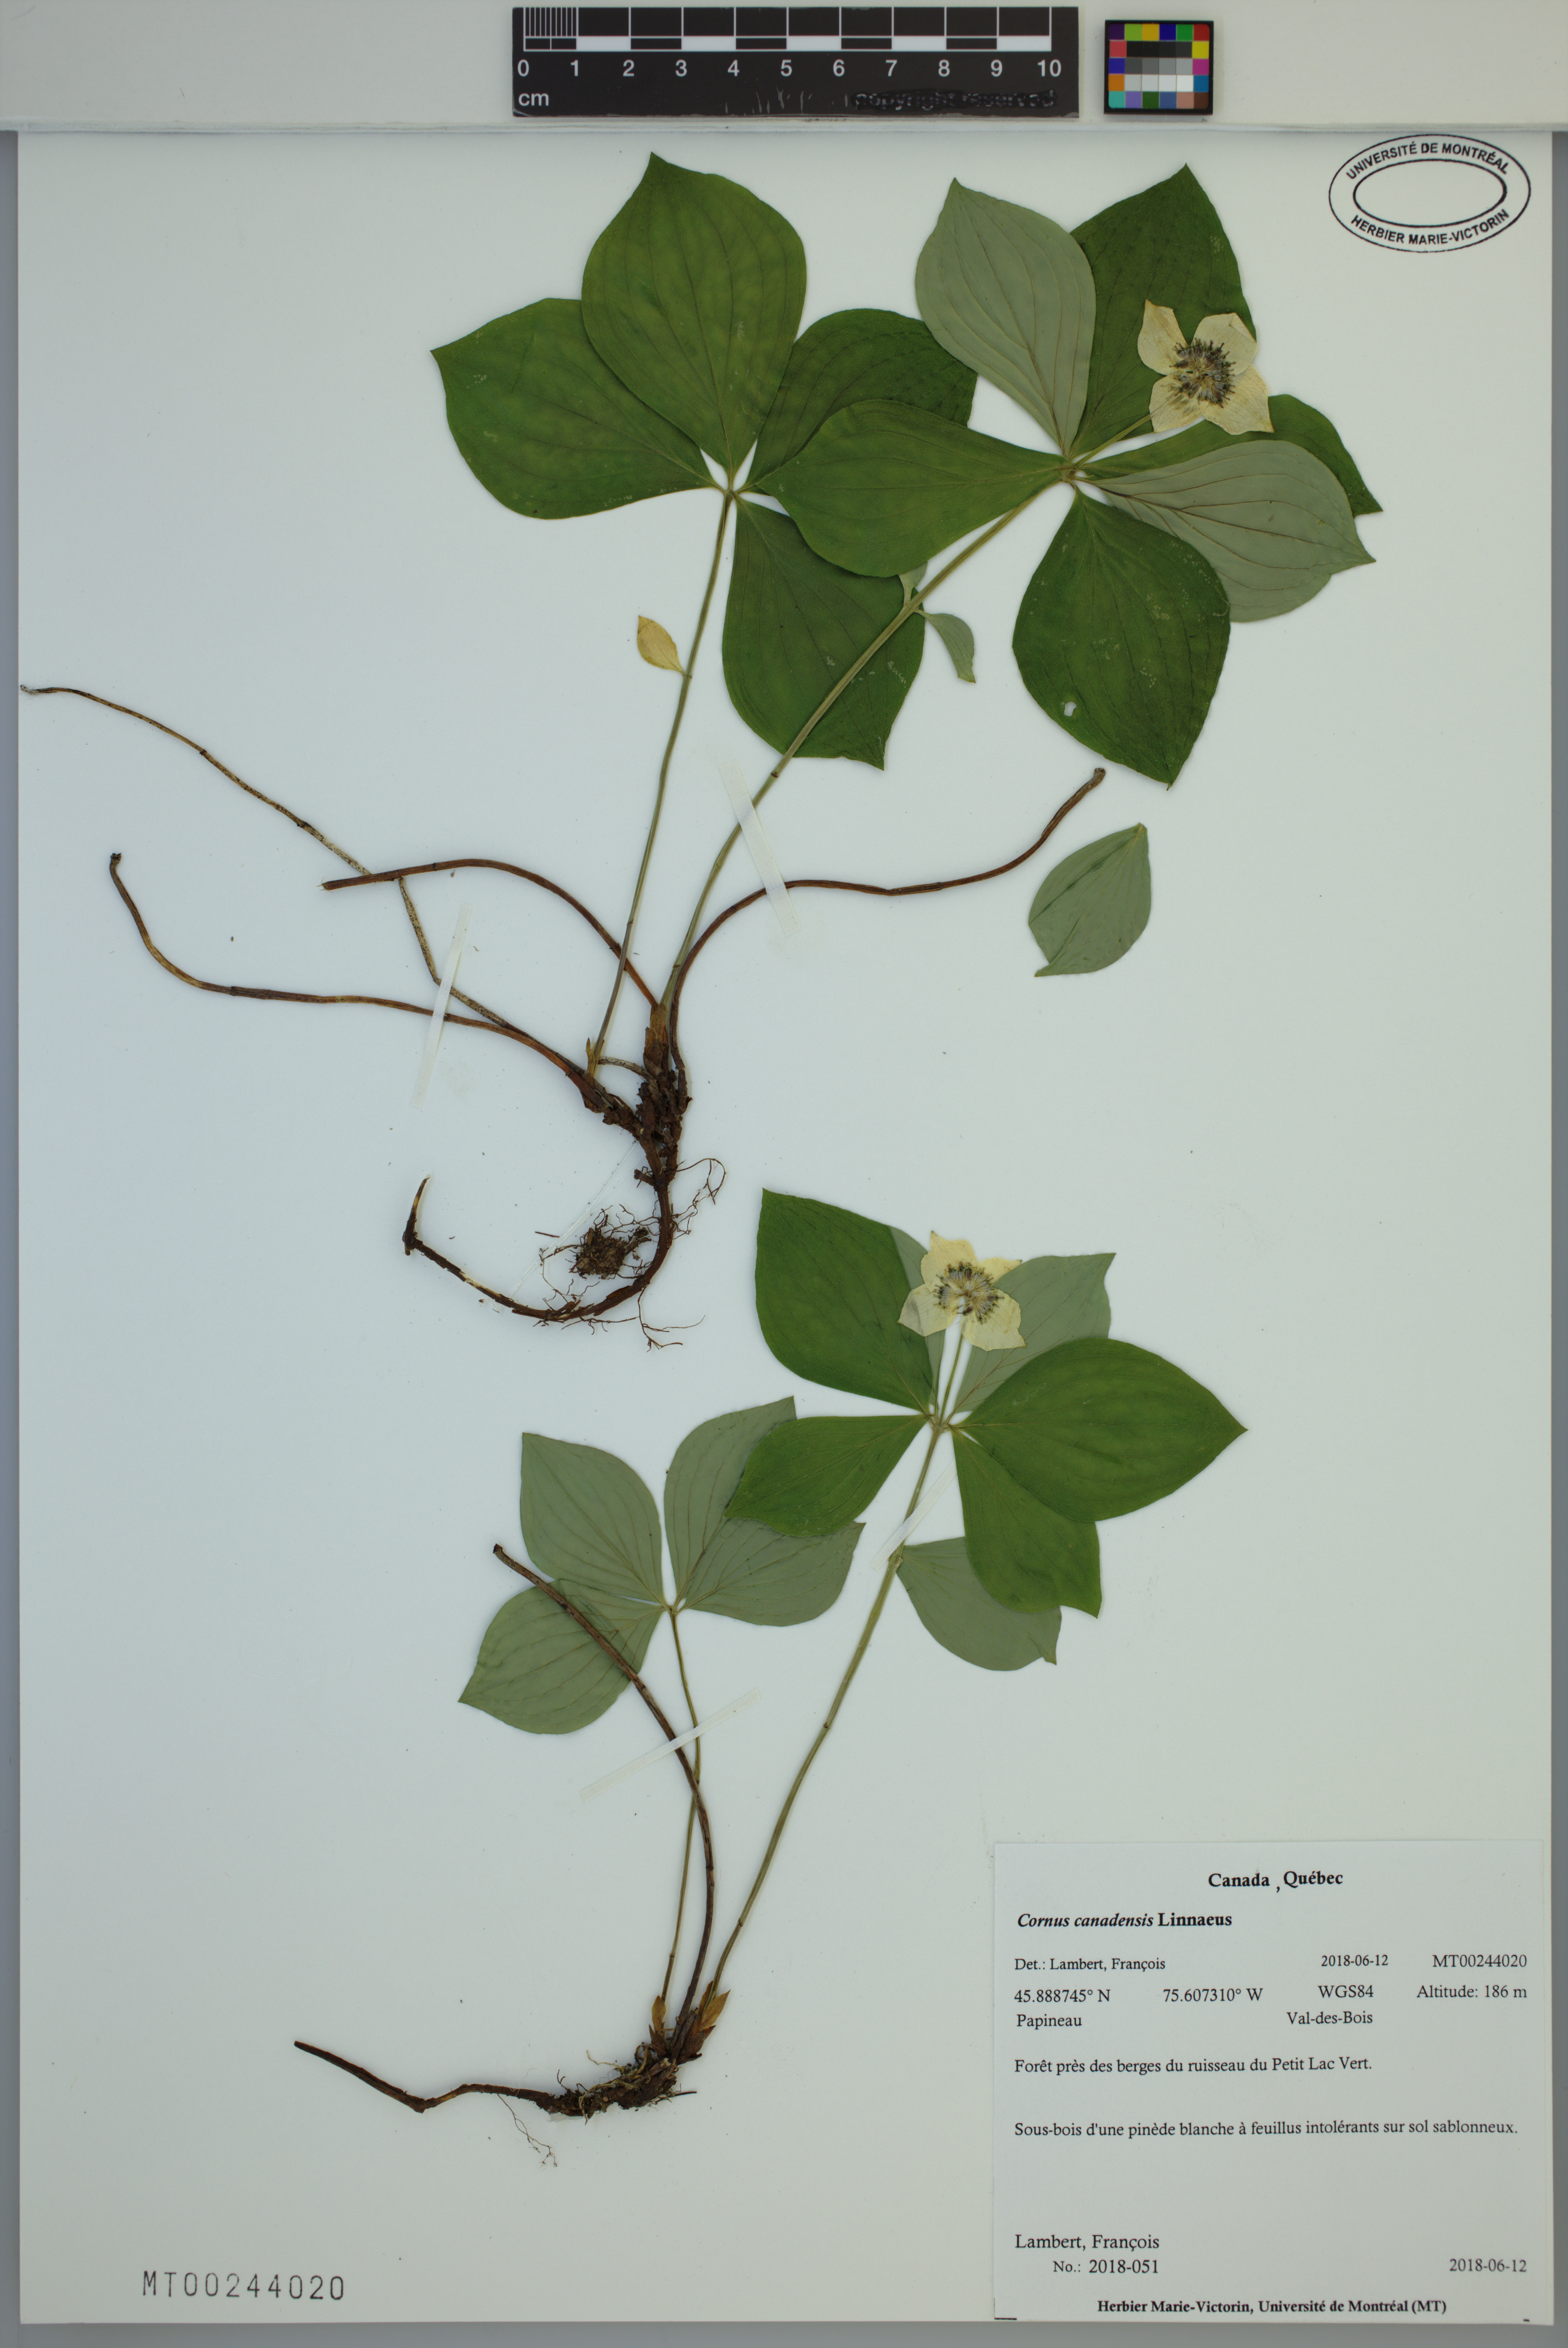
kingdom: Plantae
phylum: Tracheophyta
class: Magnoliopsida
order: Cornales
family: Cornaceae
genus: Cornus
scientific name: Cornus canadensis
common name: Creeping dogwood
